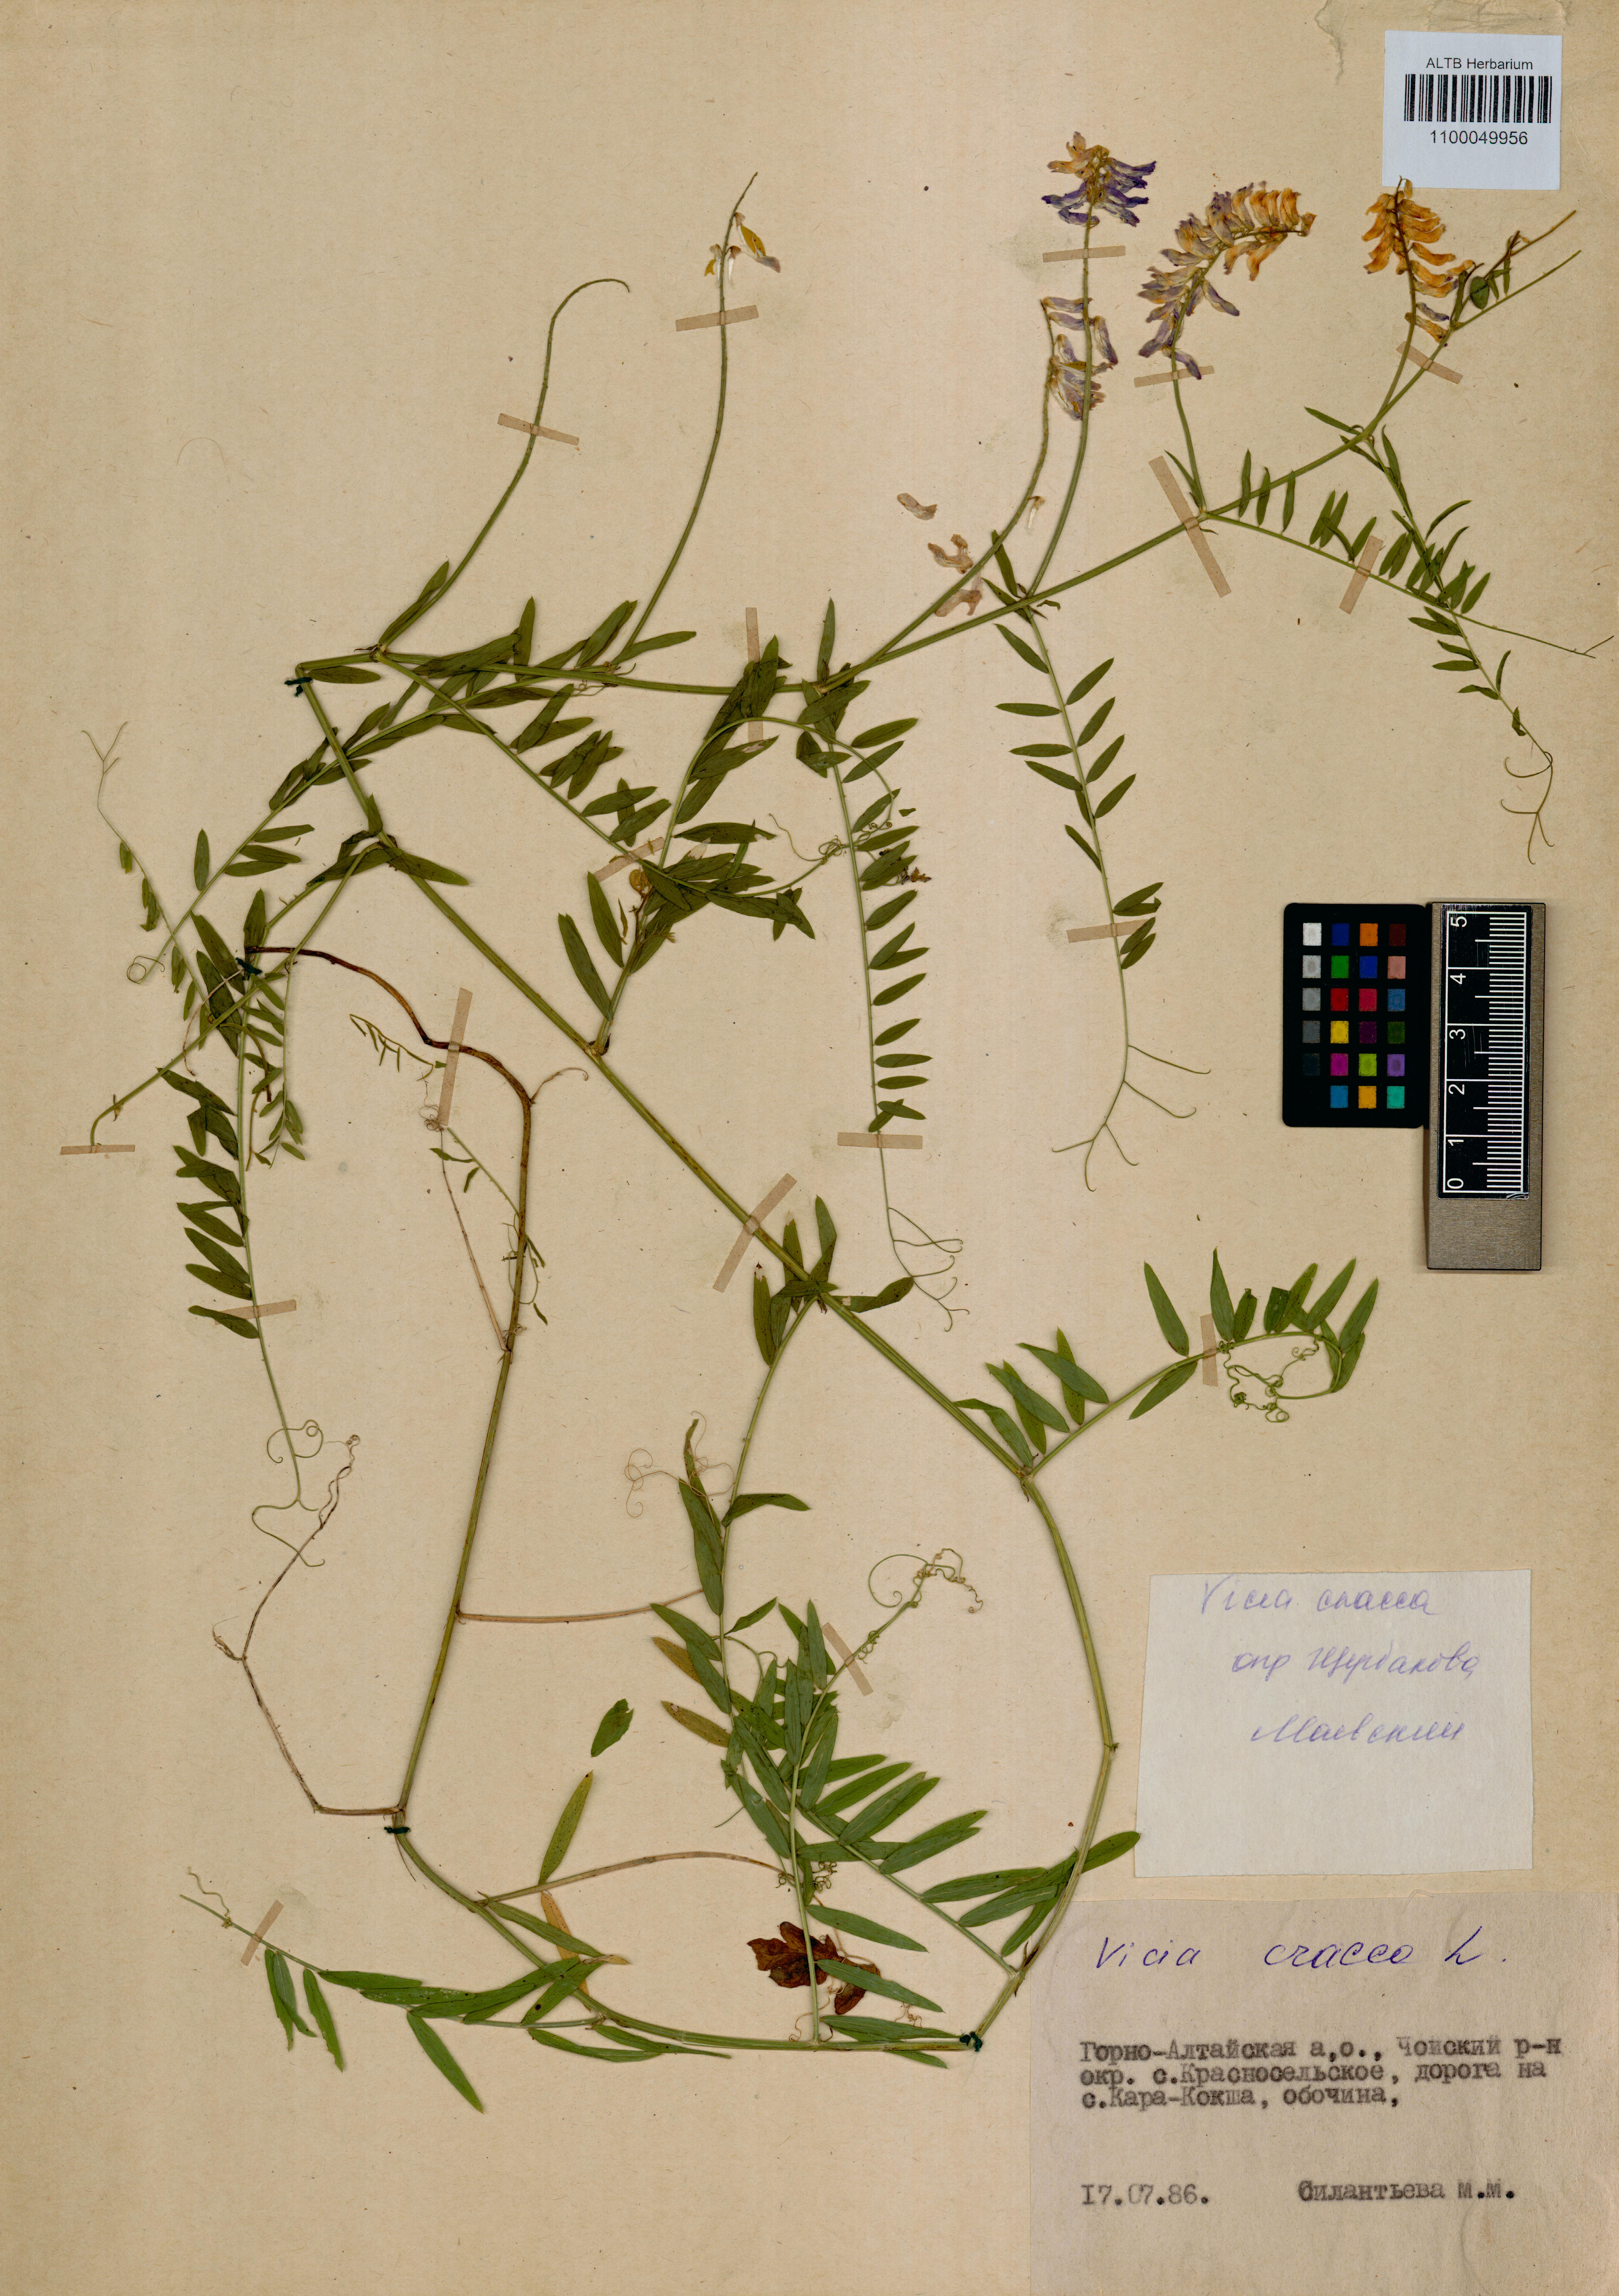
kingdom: Plantae
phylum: Tracheophyta
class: Magnoliopsida
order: Fabales
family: Fabaceae
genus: Vicia
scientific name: Vicia cracca
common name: Bird vetch
